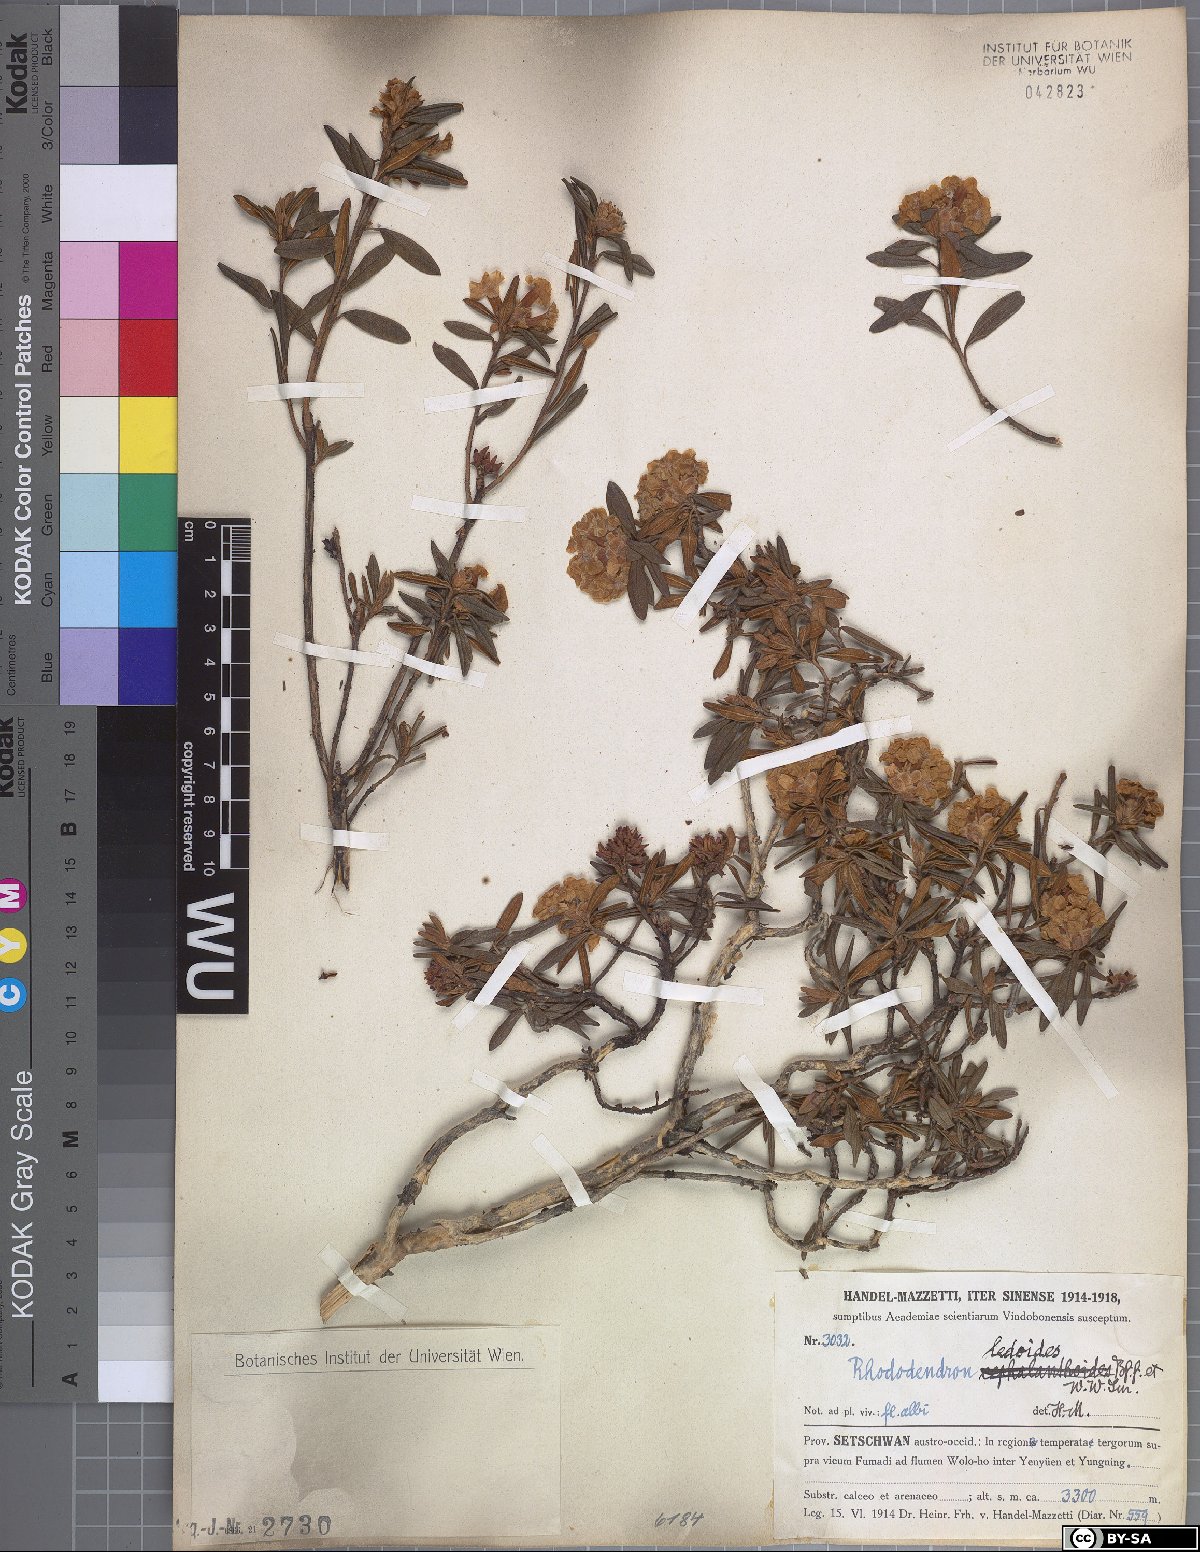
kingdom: Plantae
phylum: Tracheophyta
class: Magnoliopsida
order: Ericales
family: Ericaceae
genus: Rhododendron
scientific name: Rhododendron trichostomum
